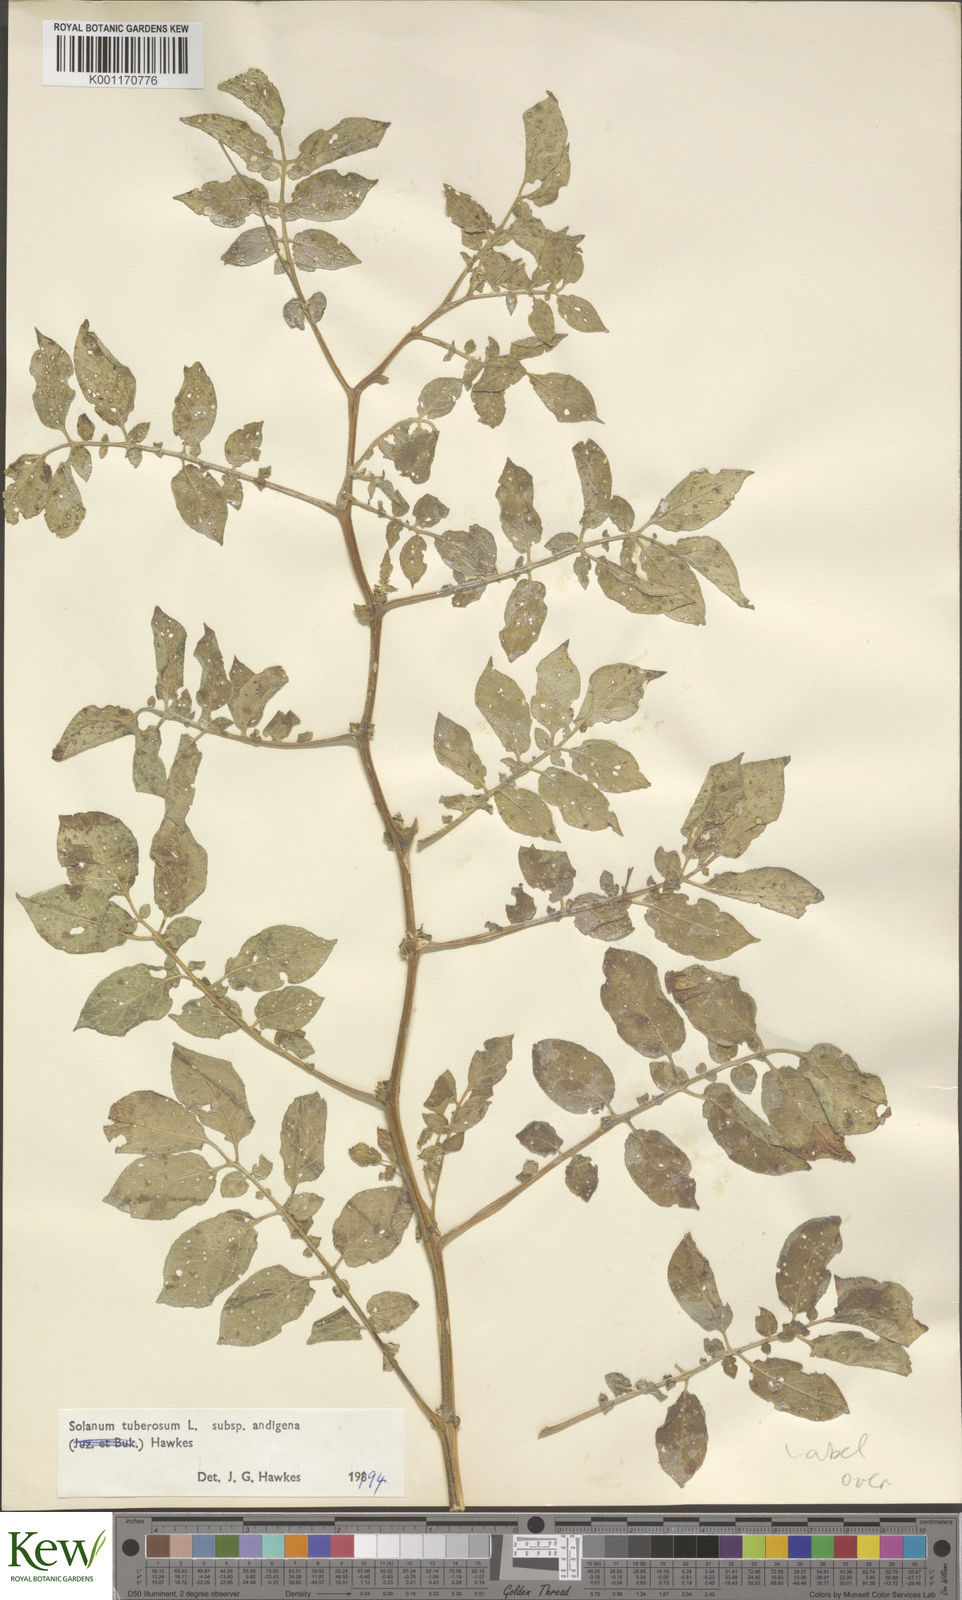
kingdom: Plantae
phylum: Tracheophyta
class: Magnoliopsida
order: Solanales
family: Solanaceae
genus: Solanum
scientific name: Solanum tuberosum
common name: Potato
